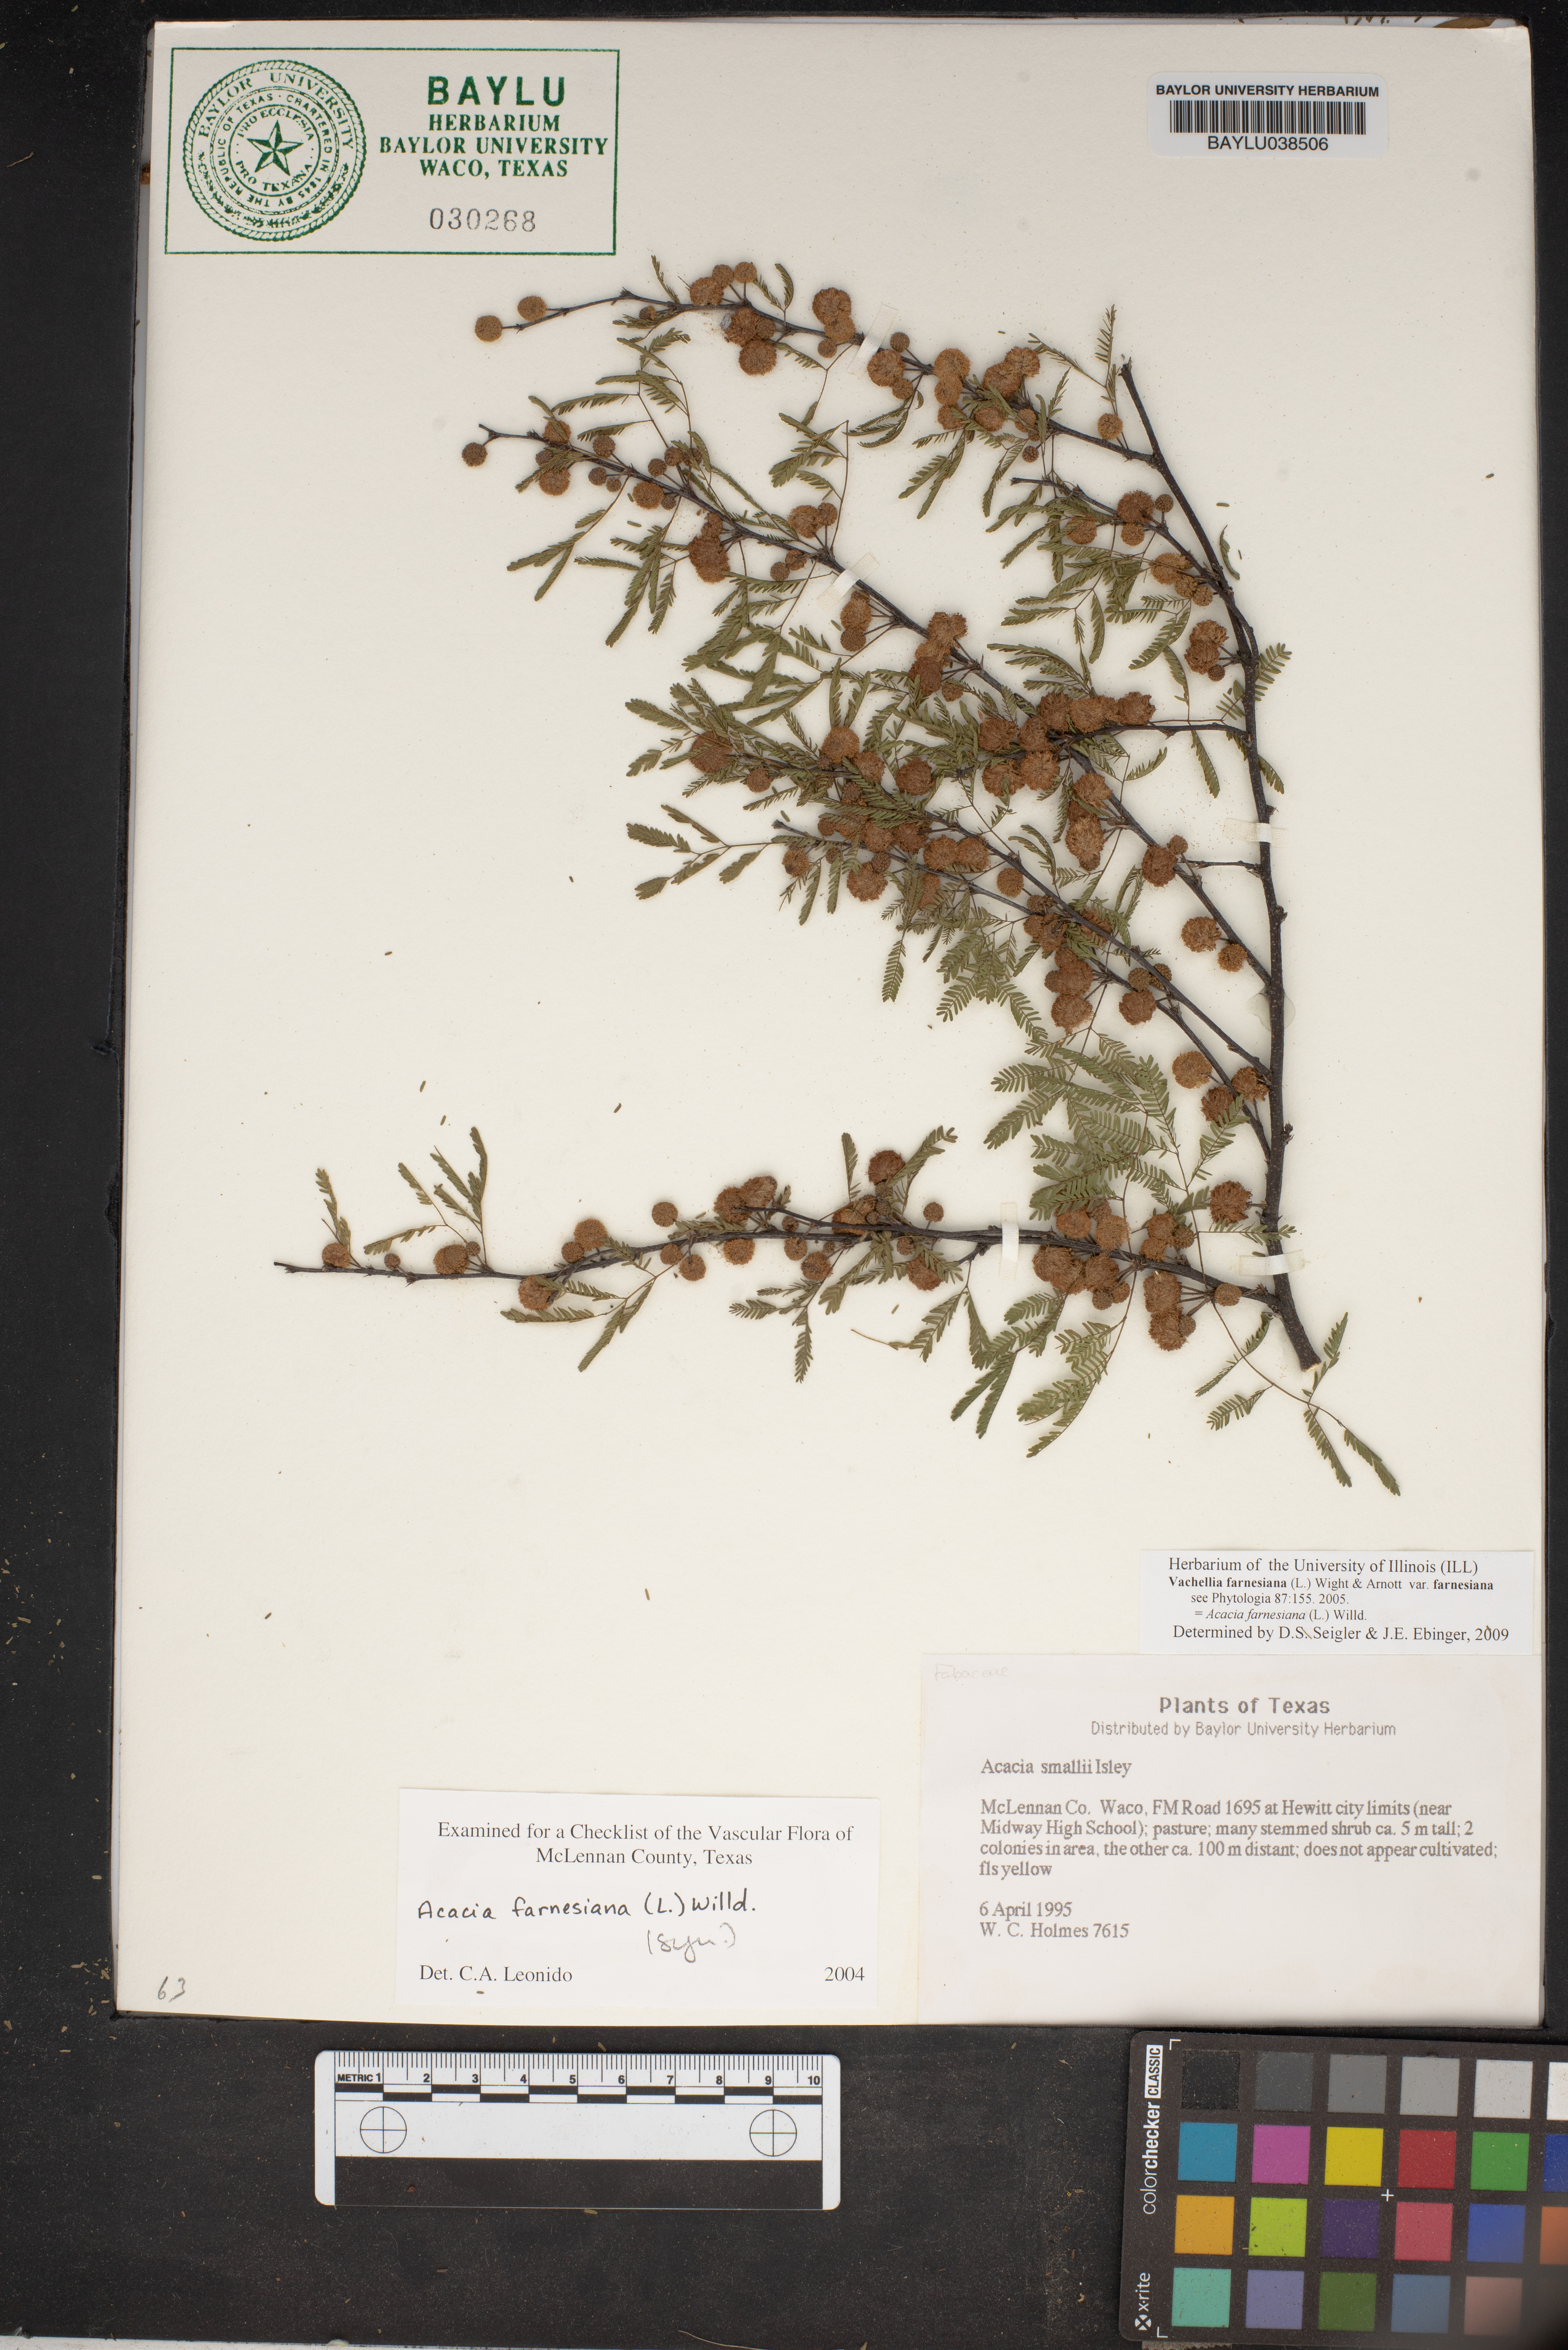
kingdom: Plantae
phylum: Tracheophyta
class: Magnoliopsida
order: Fabales
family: Fabaceae
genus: Vachellia
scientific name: Vachellia farnesiana
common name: Sweet acacia
